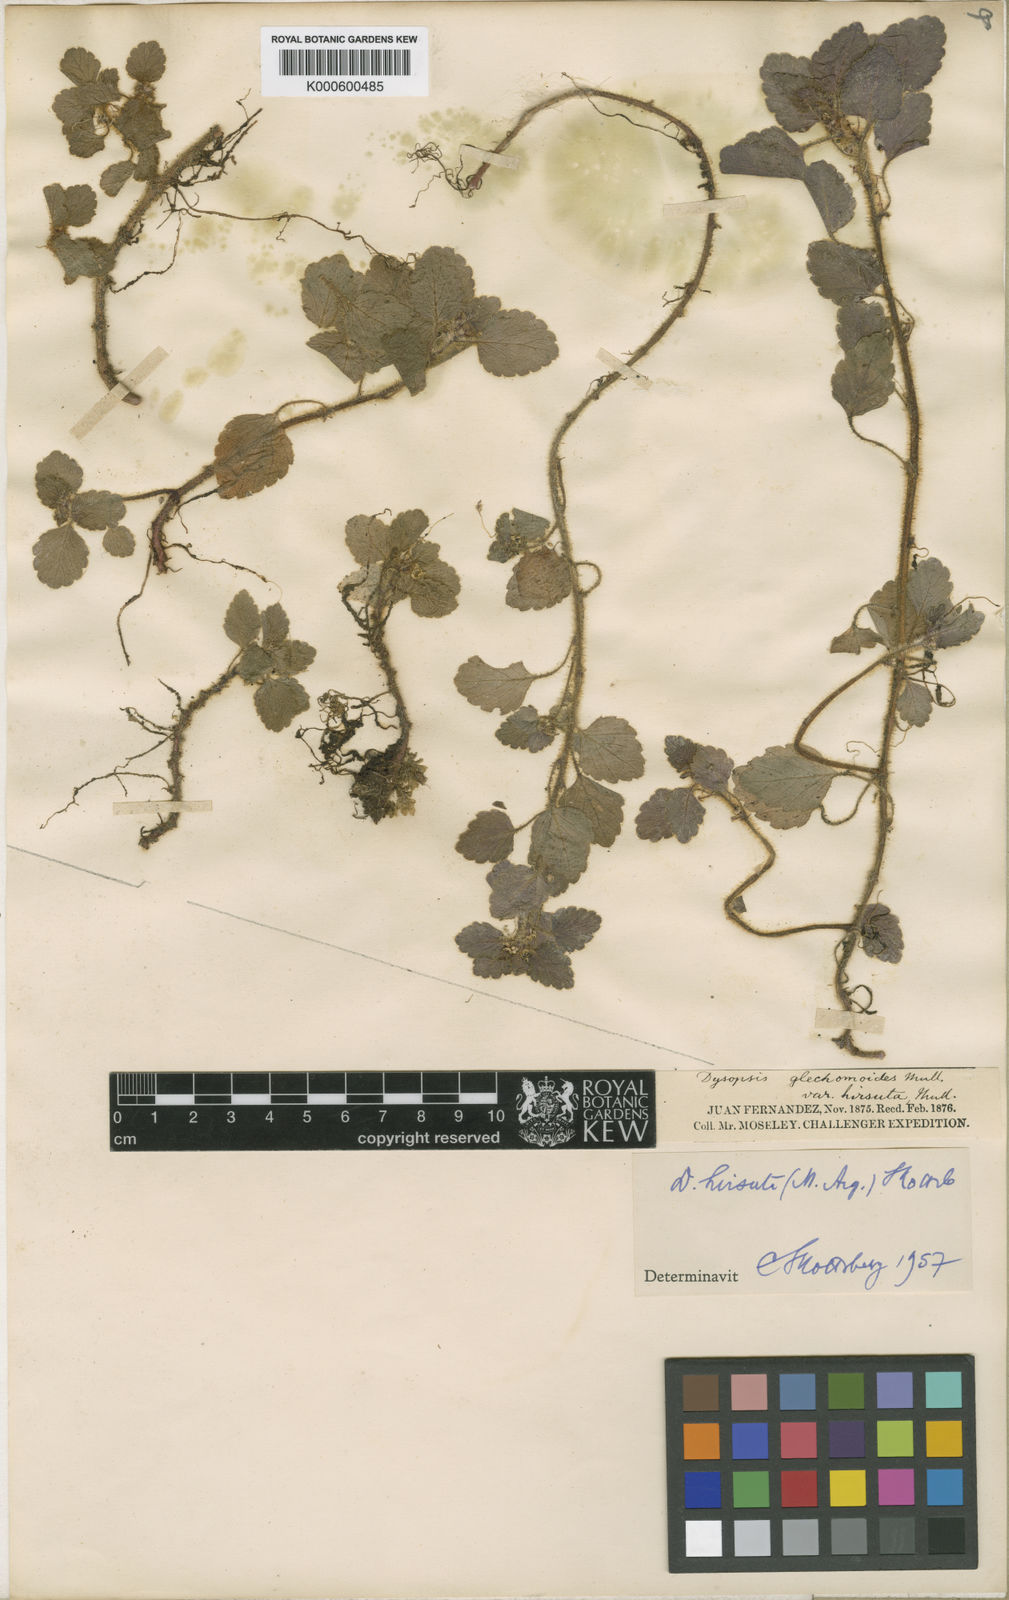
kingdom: Plantae
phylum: Tracheophyta
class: Magnoliopsida
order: Malpighiales
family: Euphorbiaceae
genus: Dysopsis
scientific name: Dysopsis
